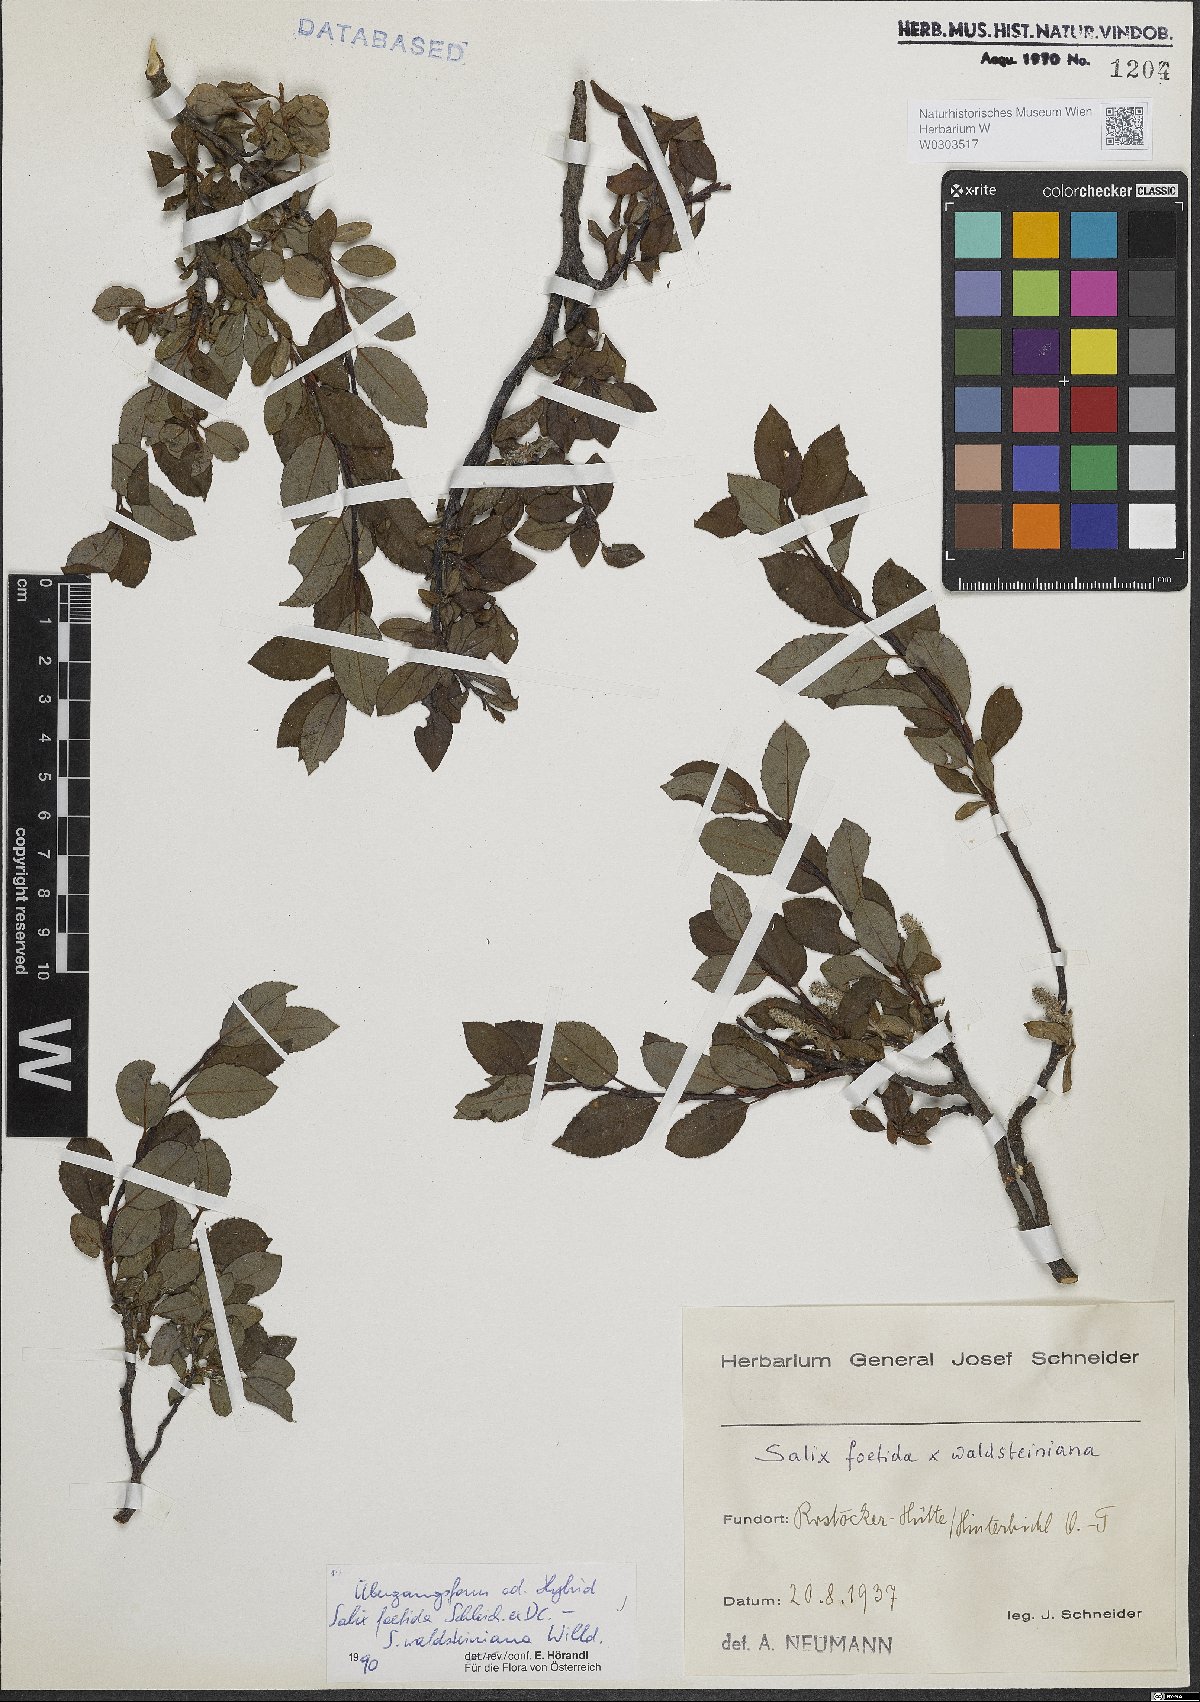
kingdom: Plantae
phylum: Tracheophyta
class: Magnoliopsida
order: Malpighiales
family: Salicaceae
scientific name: Salicaceae
